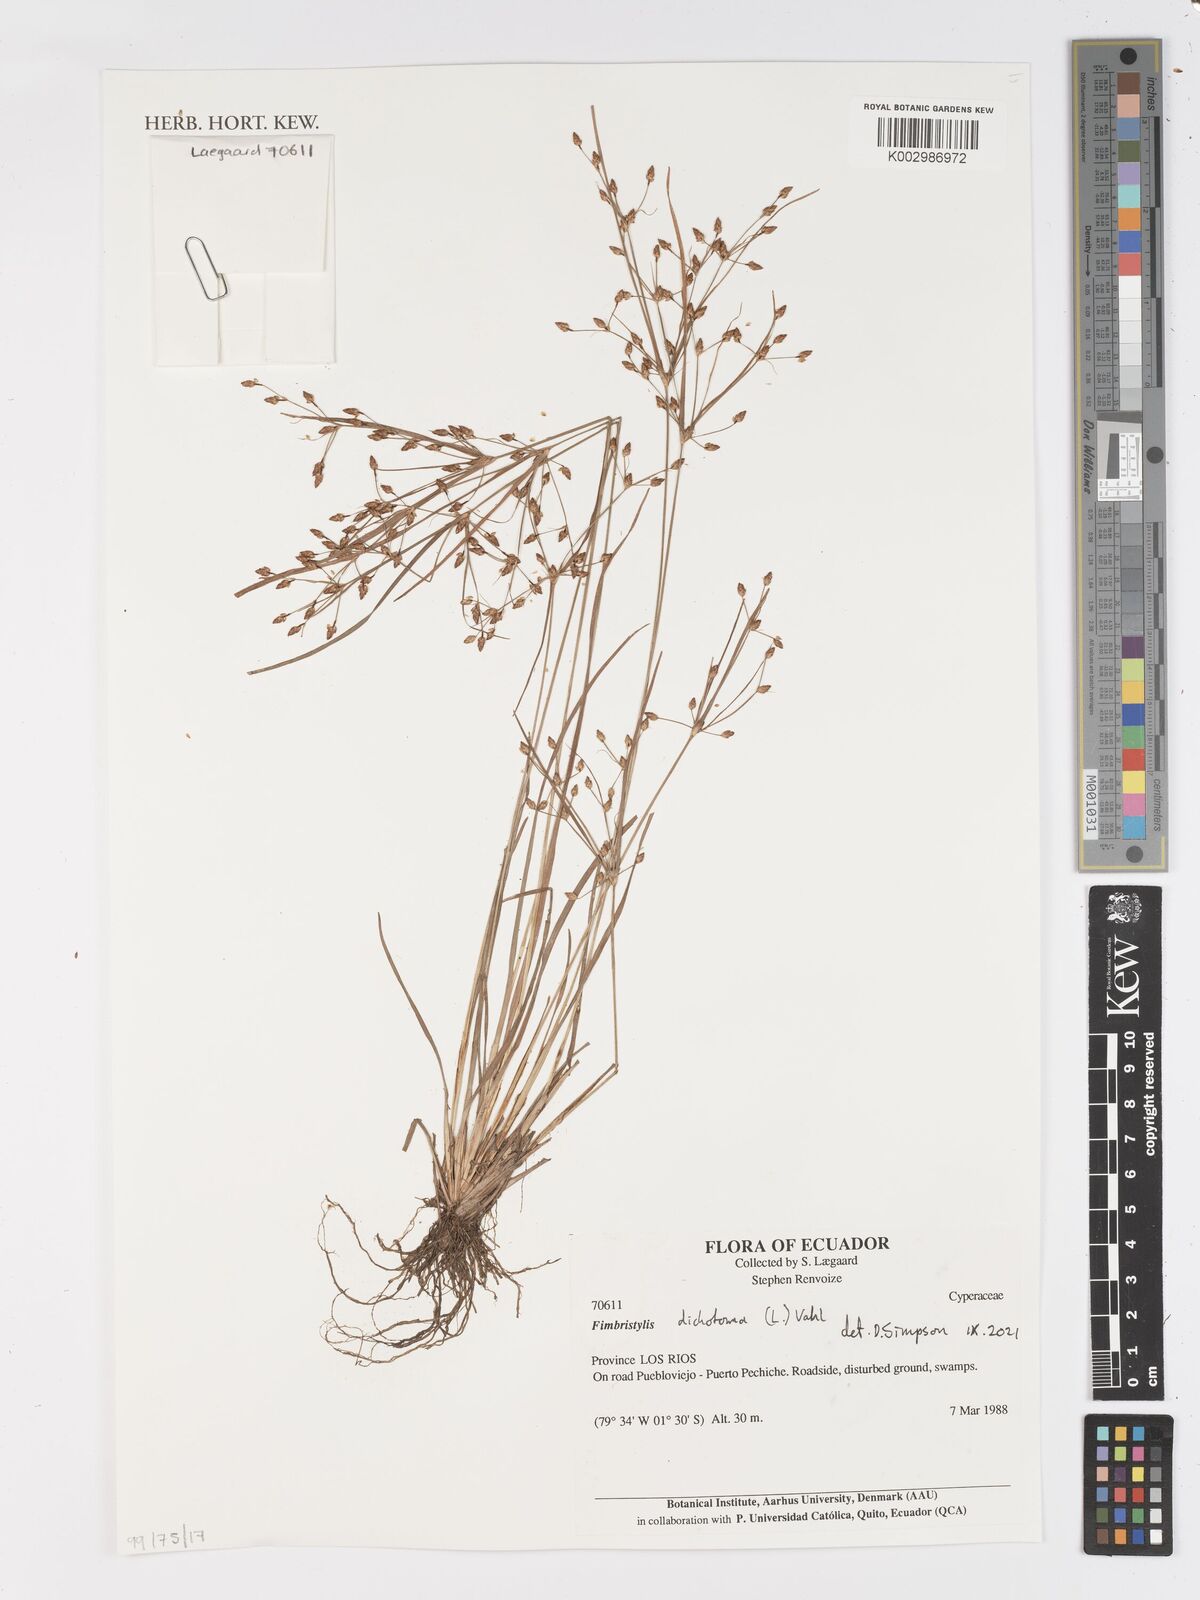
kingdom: Plantae
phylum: Tracheophyta
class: Liliopsida
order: Poales
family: Cyperaceae
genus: Fimbristylis
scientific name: Fimbristylis dichotoma
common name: Forked fimbry
